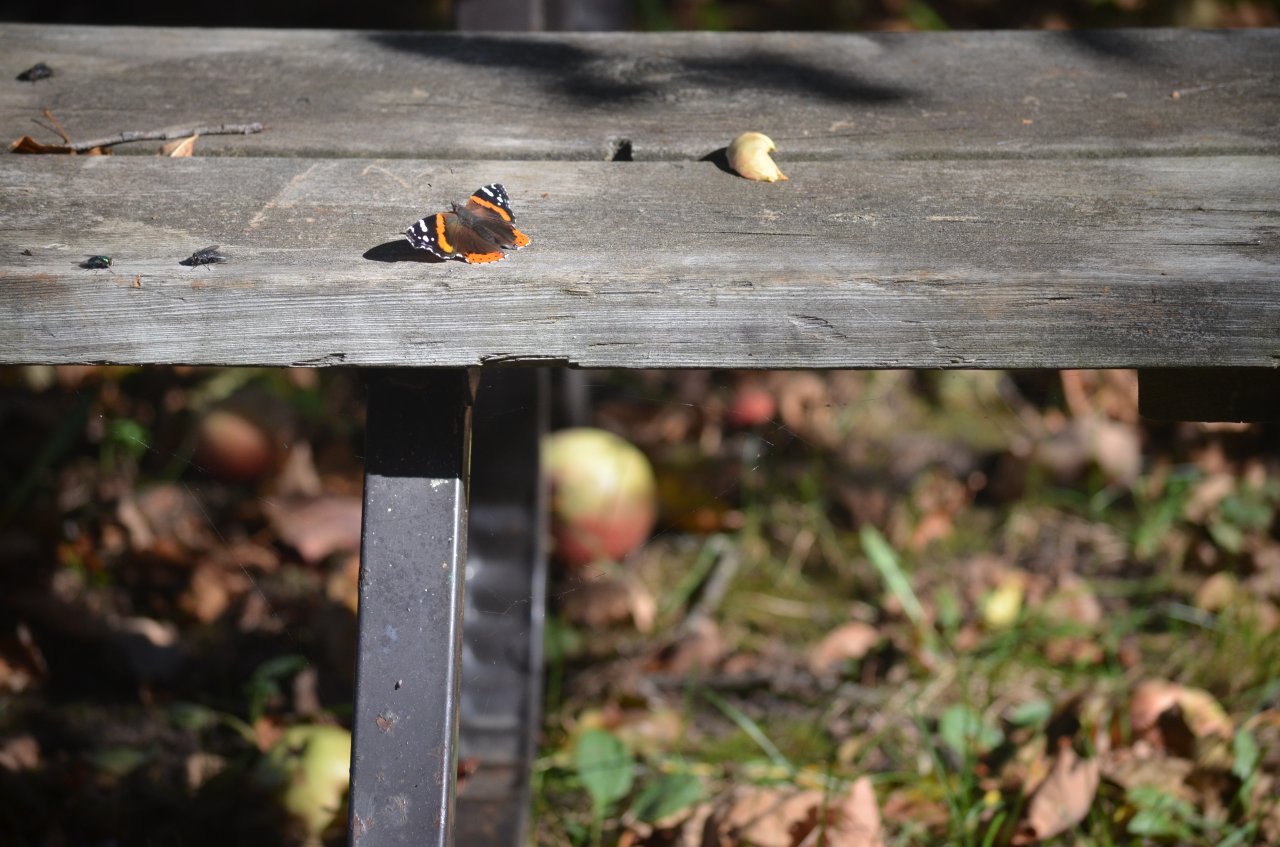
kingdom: Animalia
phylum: Arthropoda
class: Insecta
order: Lepidoptera
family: Nymphalidae
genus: Vanessa
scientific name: Vanessa atalanta
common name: Red Admiral
